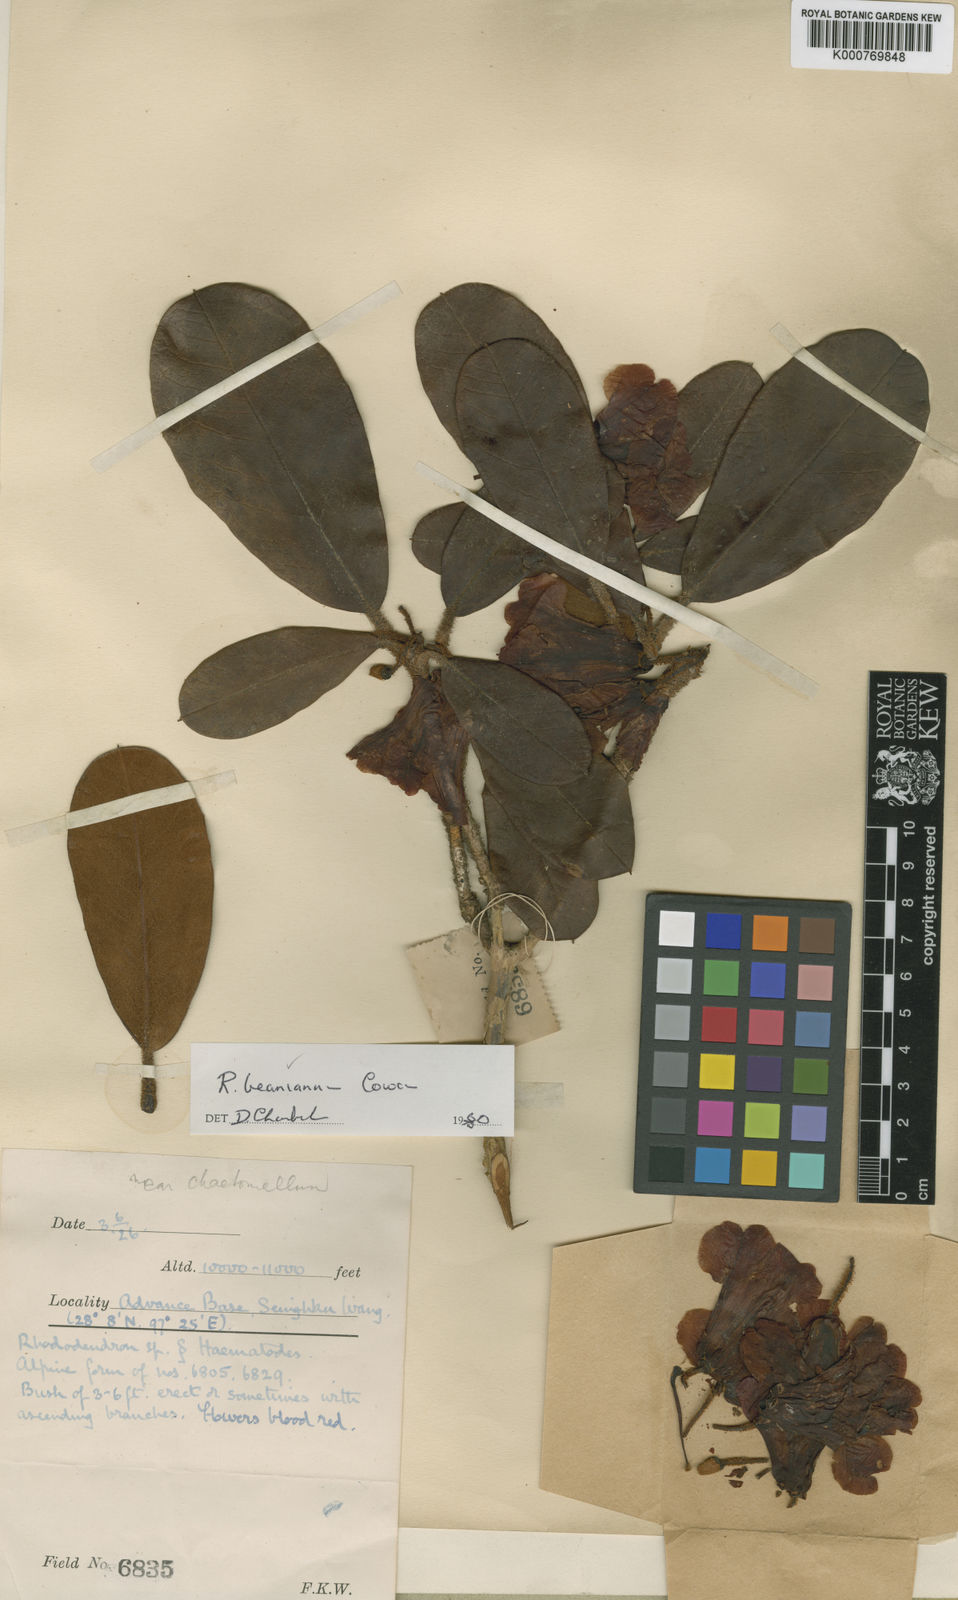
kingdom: Plantae
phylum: Tracheophyta
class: Magnoliopsida
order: Ericales
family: Ericaceae
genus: Rhododendron
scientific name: Rhododendron beanianum
